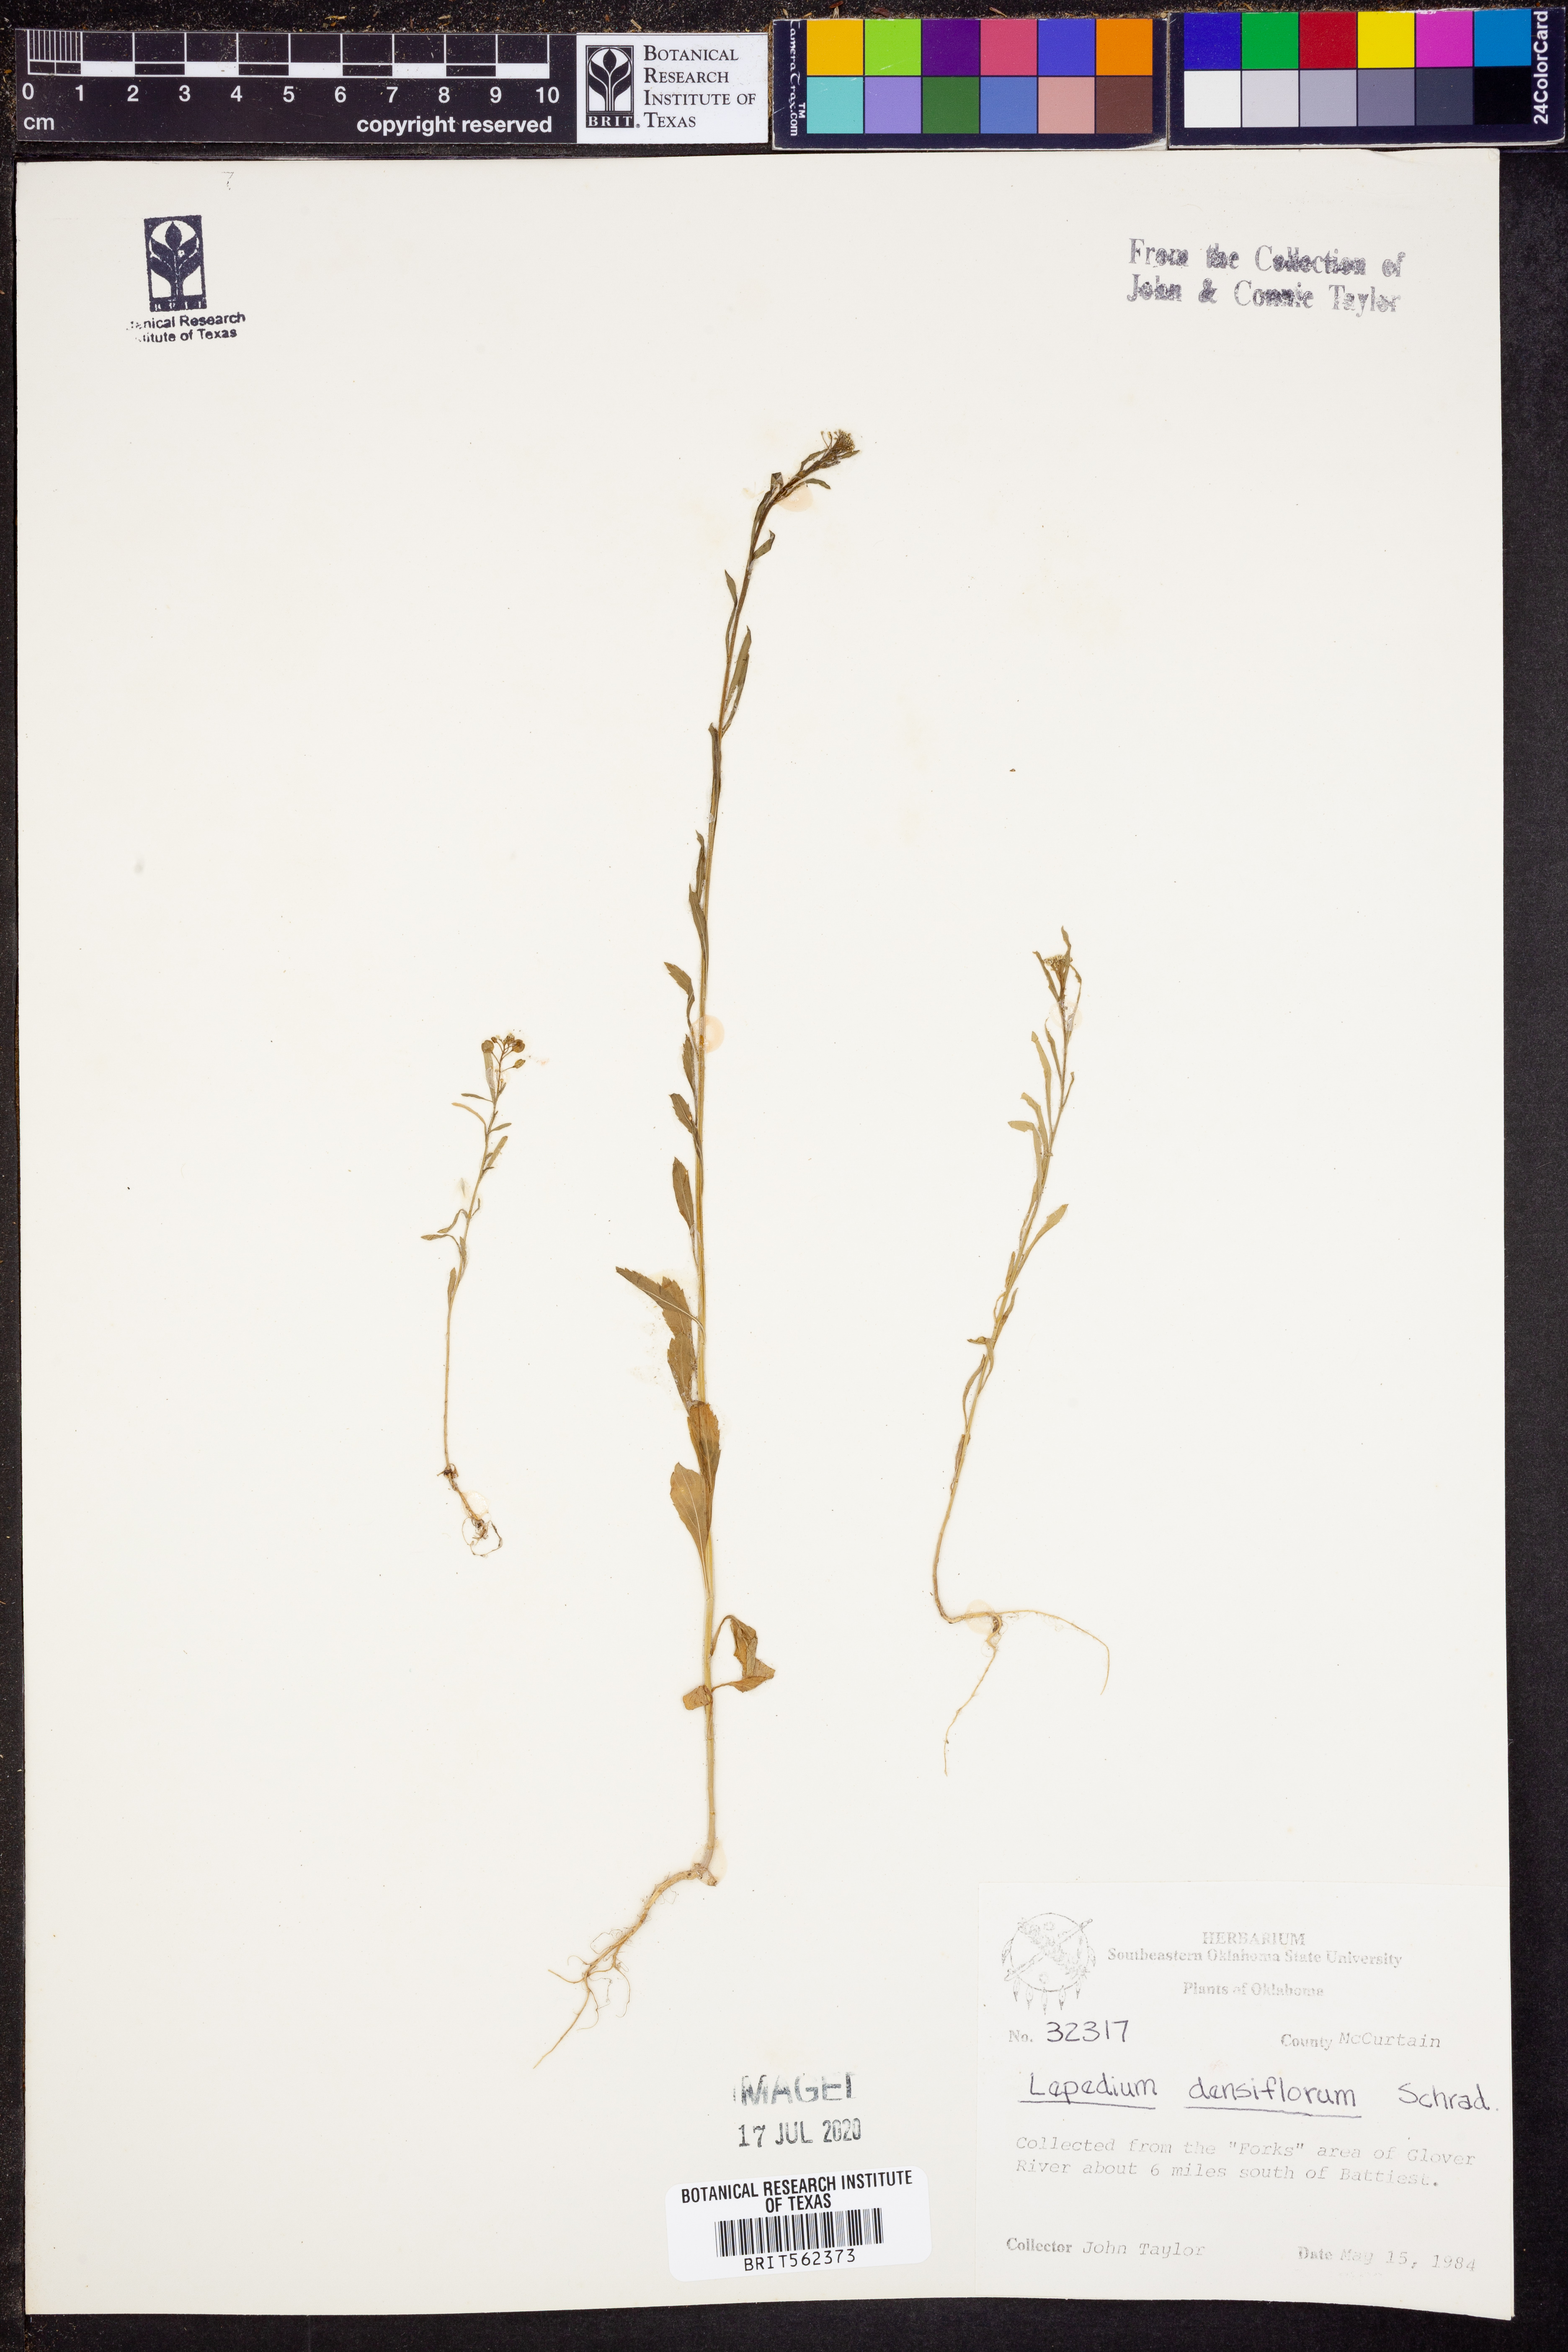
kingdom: Plantae
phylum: Tracheophyta
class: Magnoliopsida
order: Brassicales
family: Brassicaceae
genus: Lepidium
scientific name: Lepidium densiflorum
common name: Miner's pepperwort
